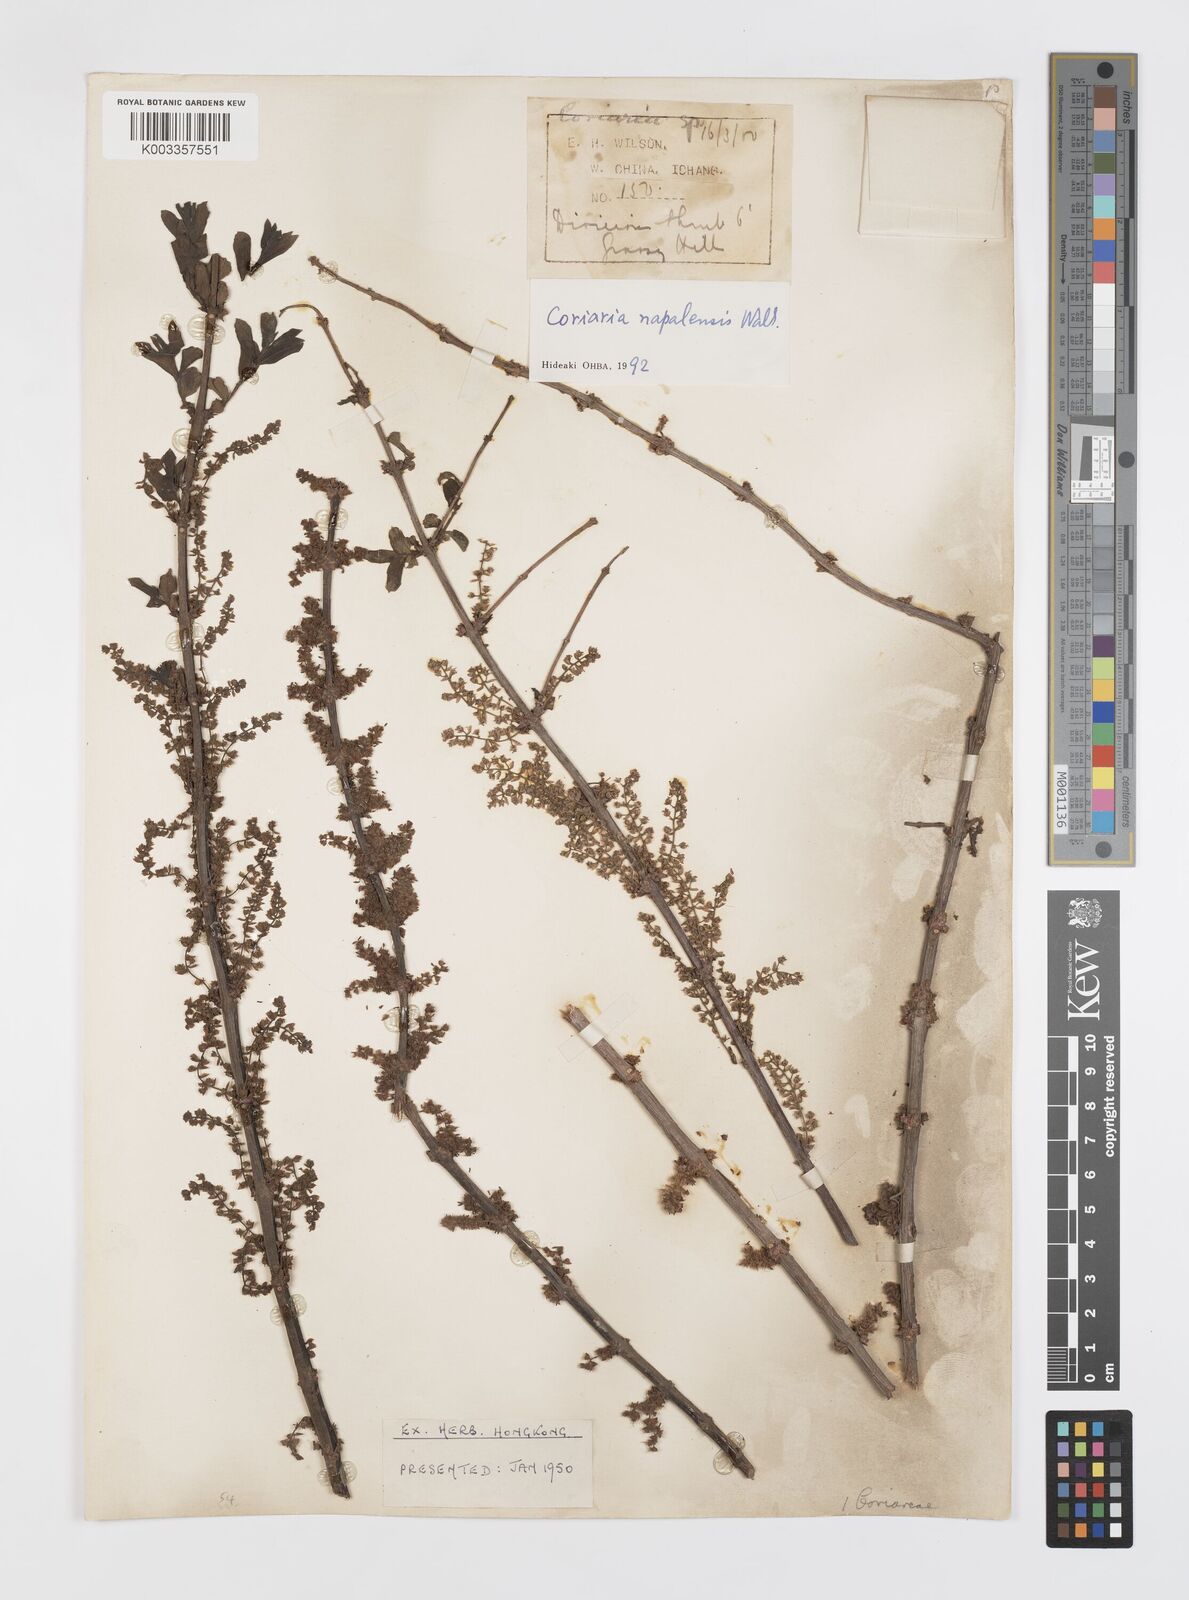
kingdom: Plantae
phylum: Tracheophyta
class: Magnoliopsida
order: Cucurbitales
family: Coriariaceae
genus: Coriaria
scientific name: Coriaria napalensis
